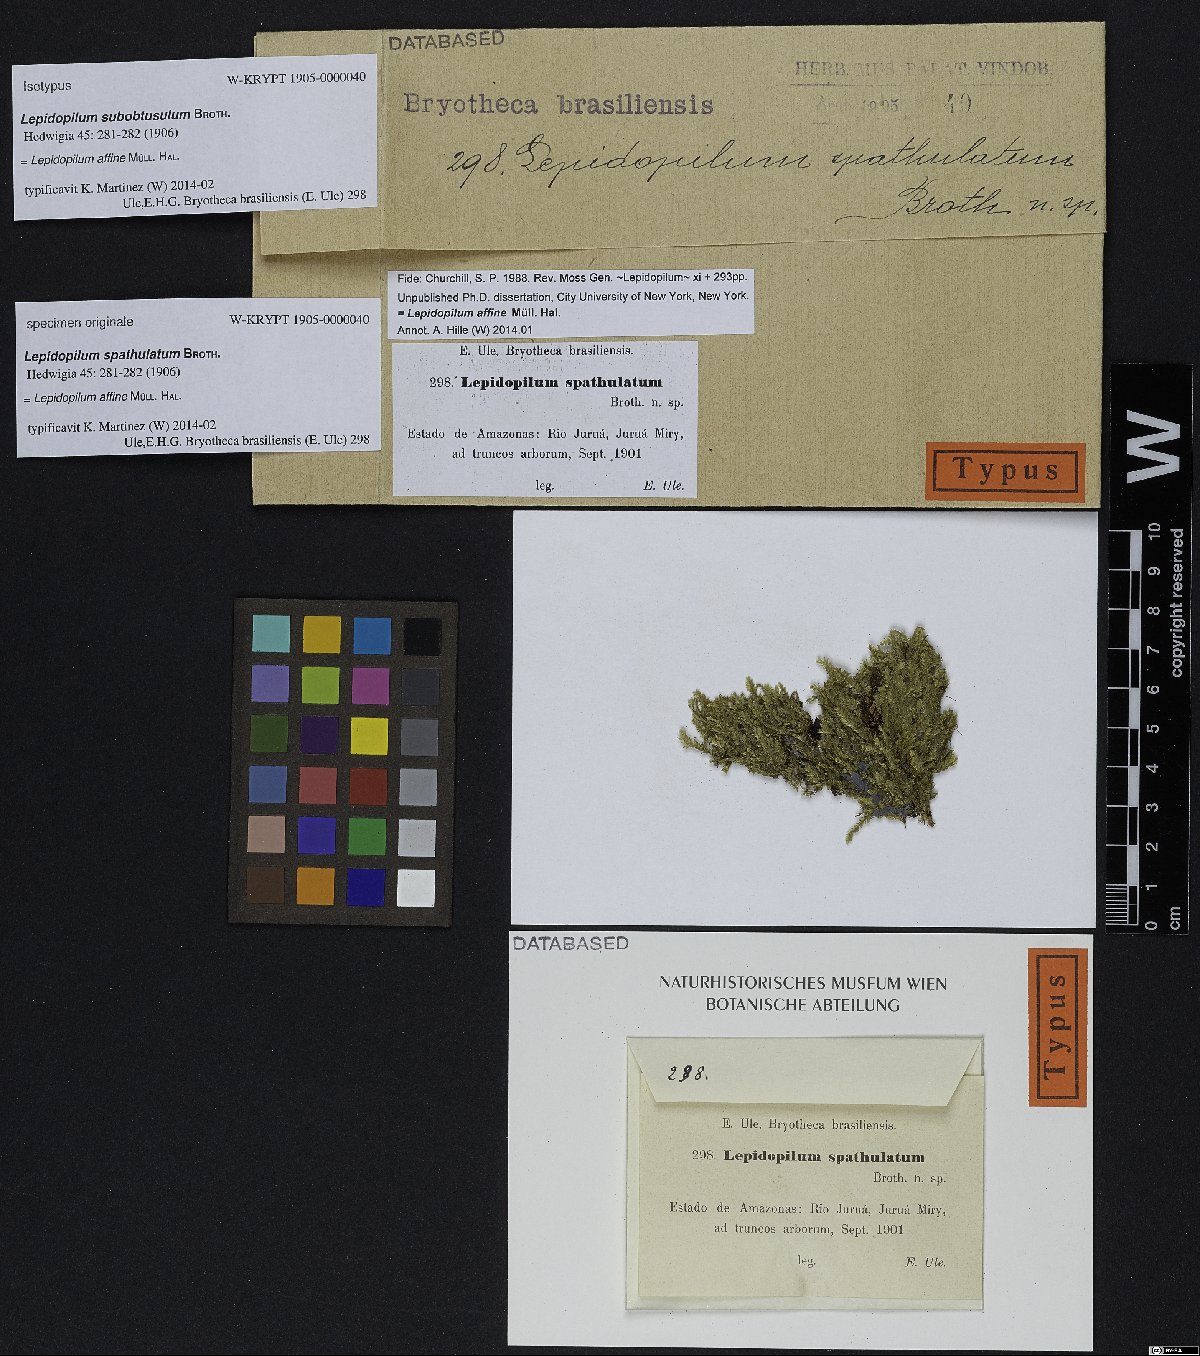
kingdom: Plantae
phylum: Bryophyta
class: Bryopsida
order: Hookeriales
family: Pilotrichaceae
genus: Lepidopilum
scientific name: Lepidopilum affine
